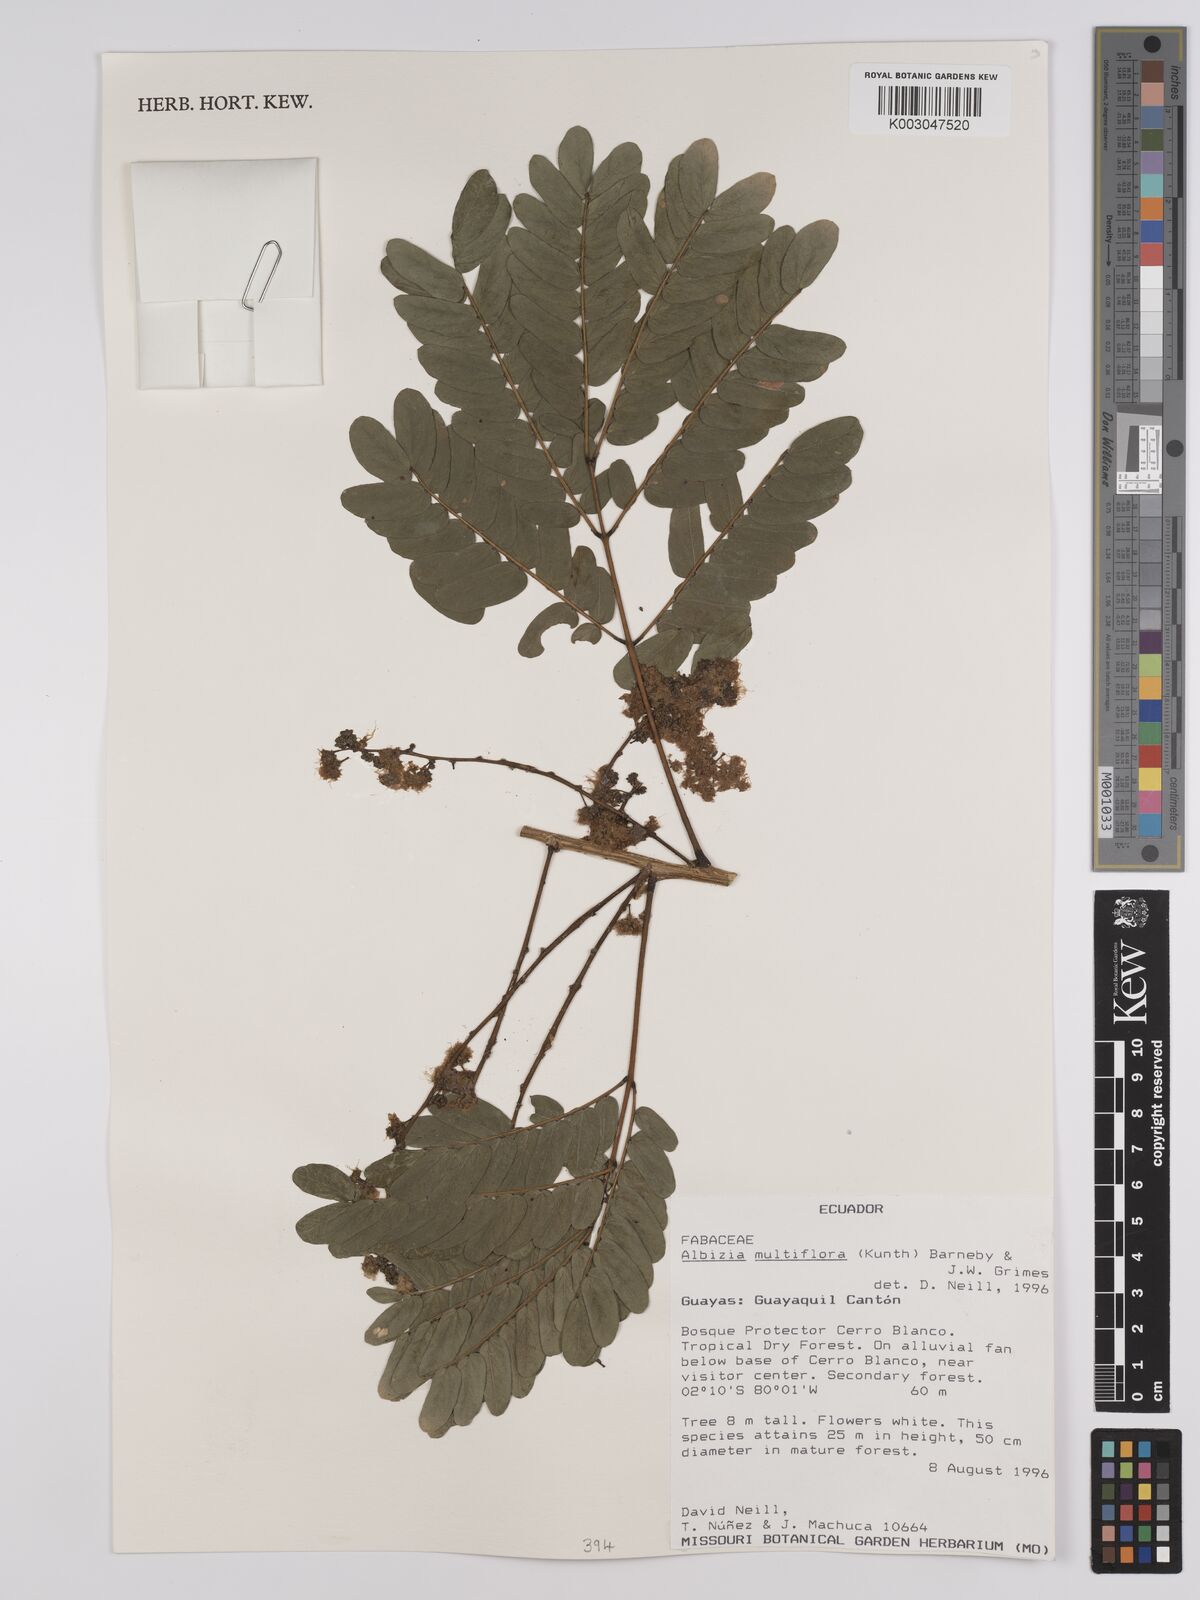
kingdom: Plantae
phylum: Tracheophyta
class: Magnoliopsida
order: Fabales
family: Fabaceae
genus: Albizia
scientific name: Albizia multiflora
